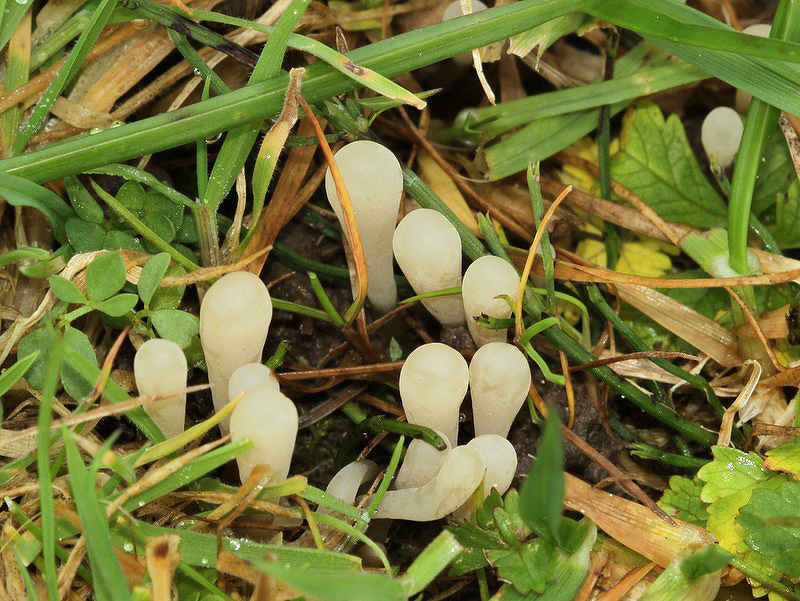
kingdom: Fungi
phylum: Basidiomycota
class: Agaricomycetes
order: Agaricales
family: Clavariaceae
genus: Clavaria
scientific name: Clavaria fragilis
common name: bugtet køllesvamp
